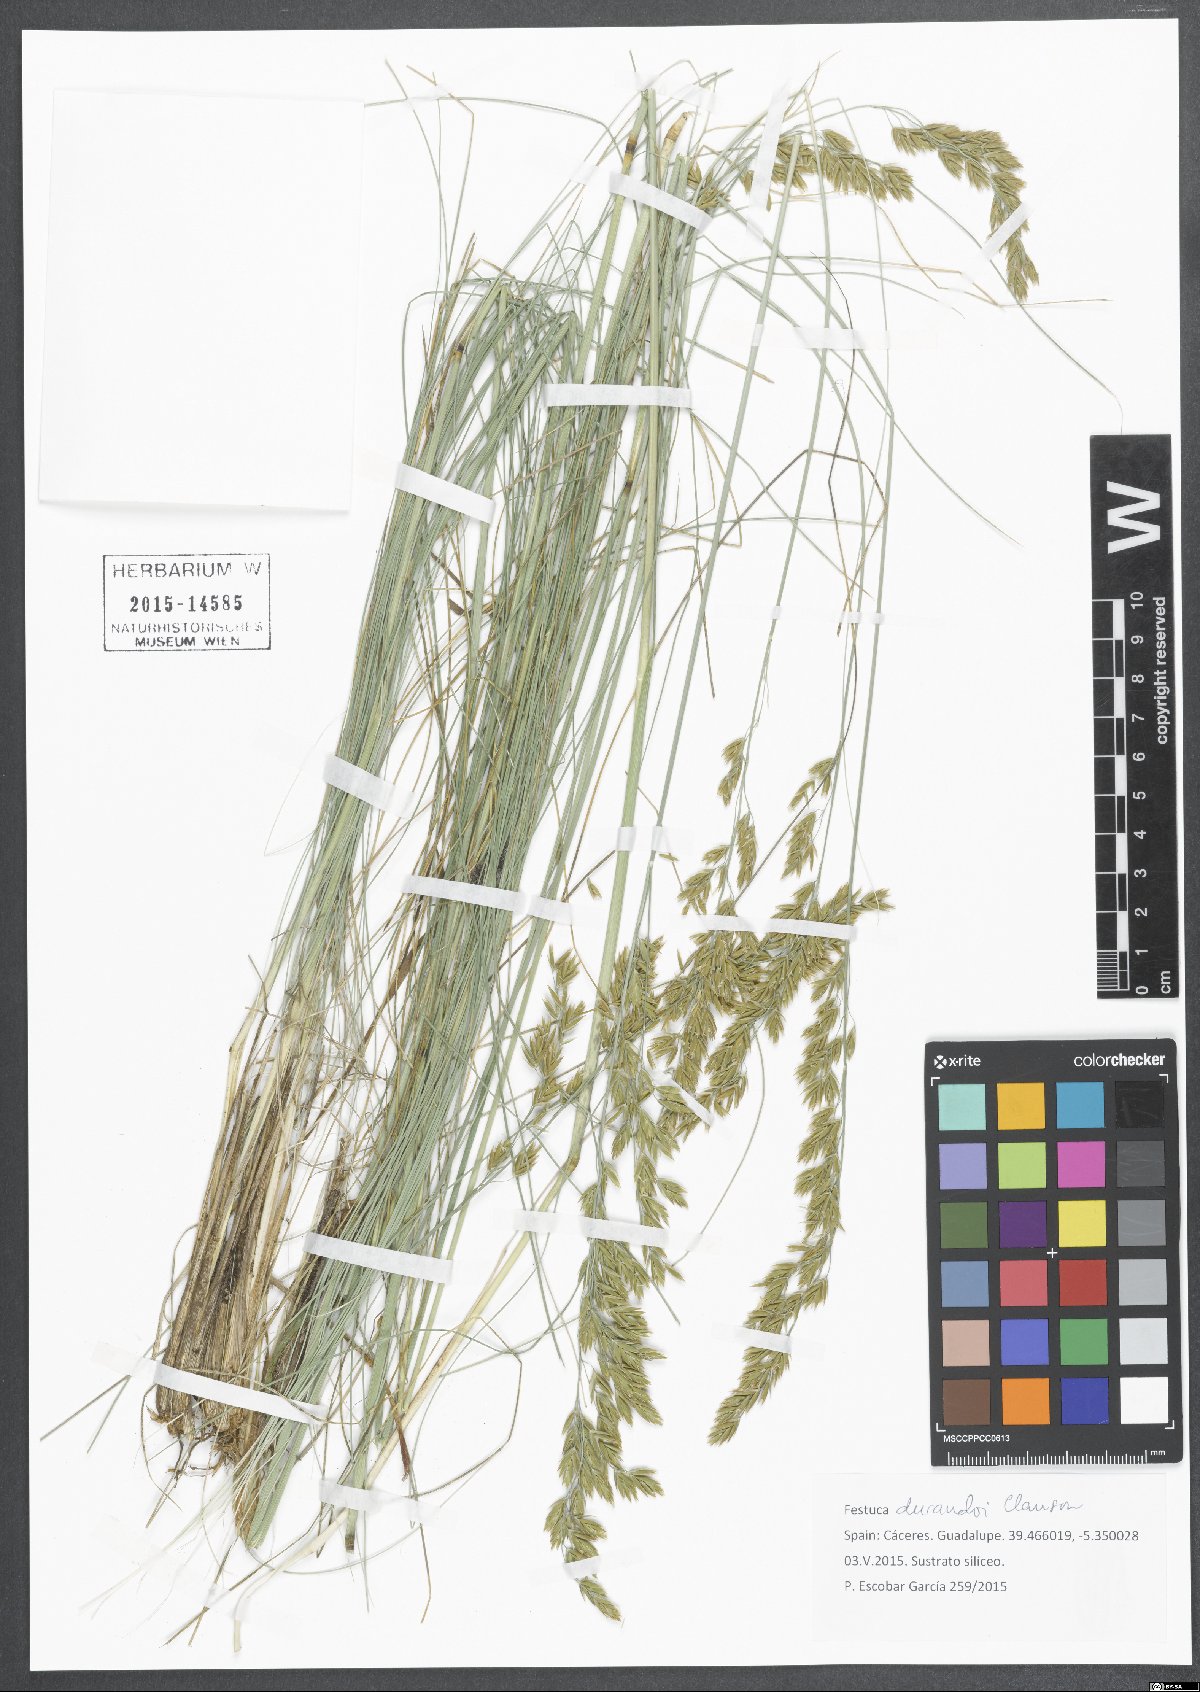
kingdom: Plantae
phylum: Tracheophyta
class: Liliopsida
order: Poales
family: Poaceae
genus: Patzkea
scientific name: Patzkea durandoi
